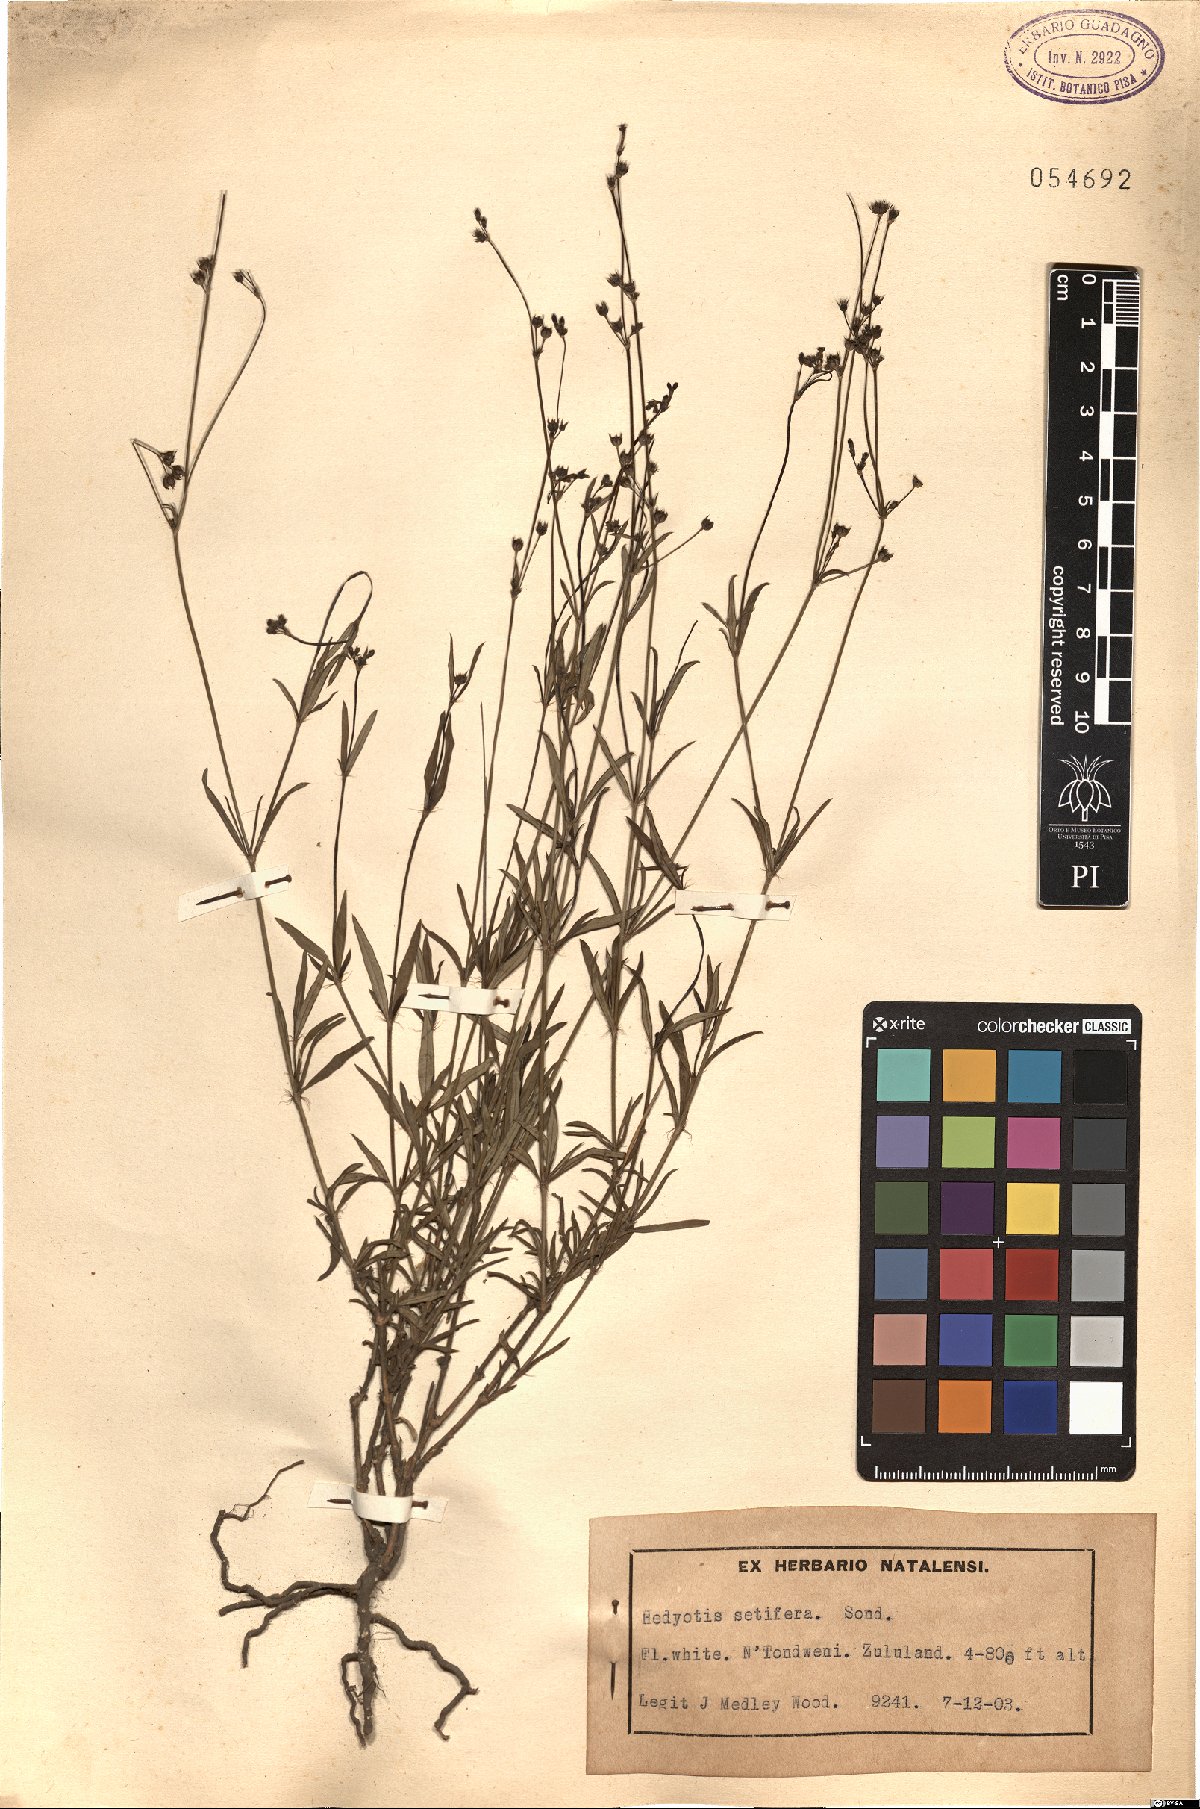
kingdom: Plantae
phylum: Tracheophyta
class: Magnoliopsida
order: Gentianales
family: Rubiaceae
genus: Cordylostigma
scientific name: Cordylostigma virgatum
